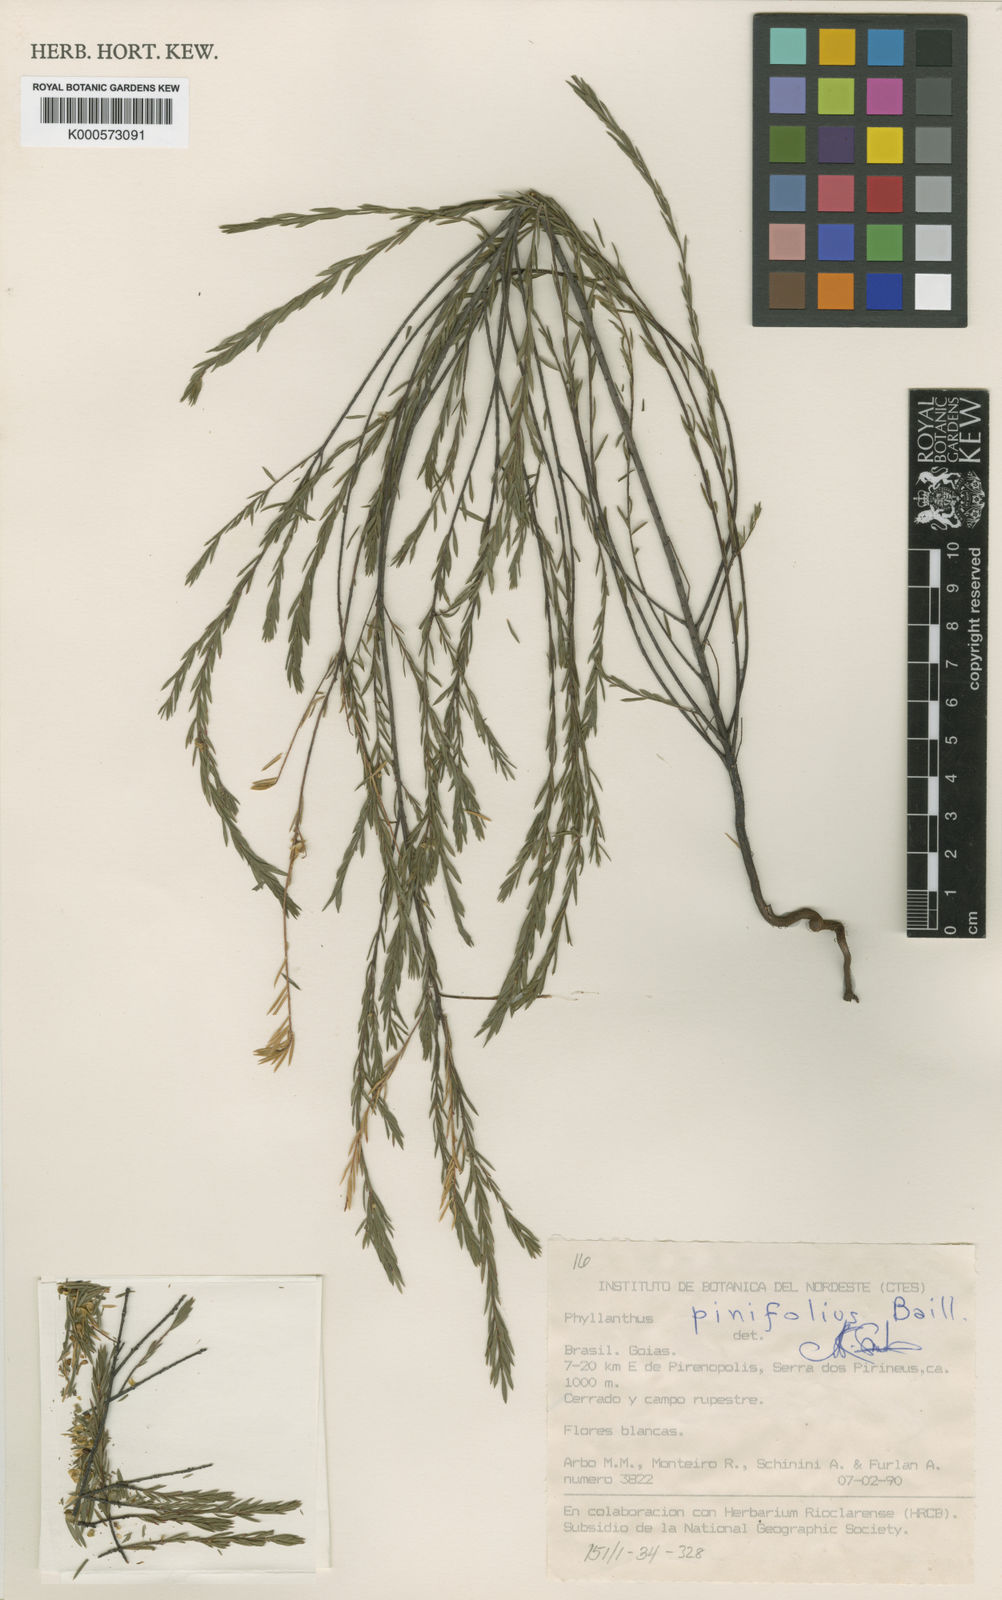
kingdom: Plantae
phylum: Tracheophyta
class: Magnoliopsida
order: Malpighiales
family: Phyllanthaceae
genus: Phyllanthus
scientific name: Phyllanthus pinifolius
